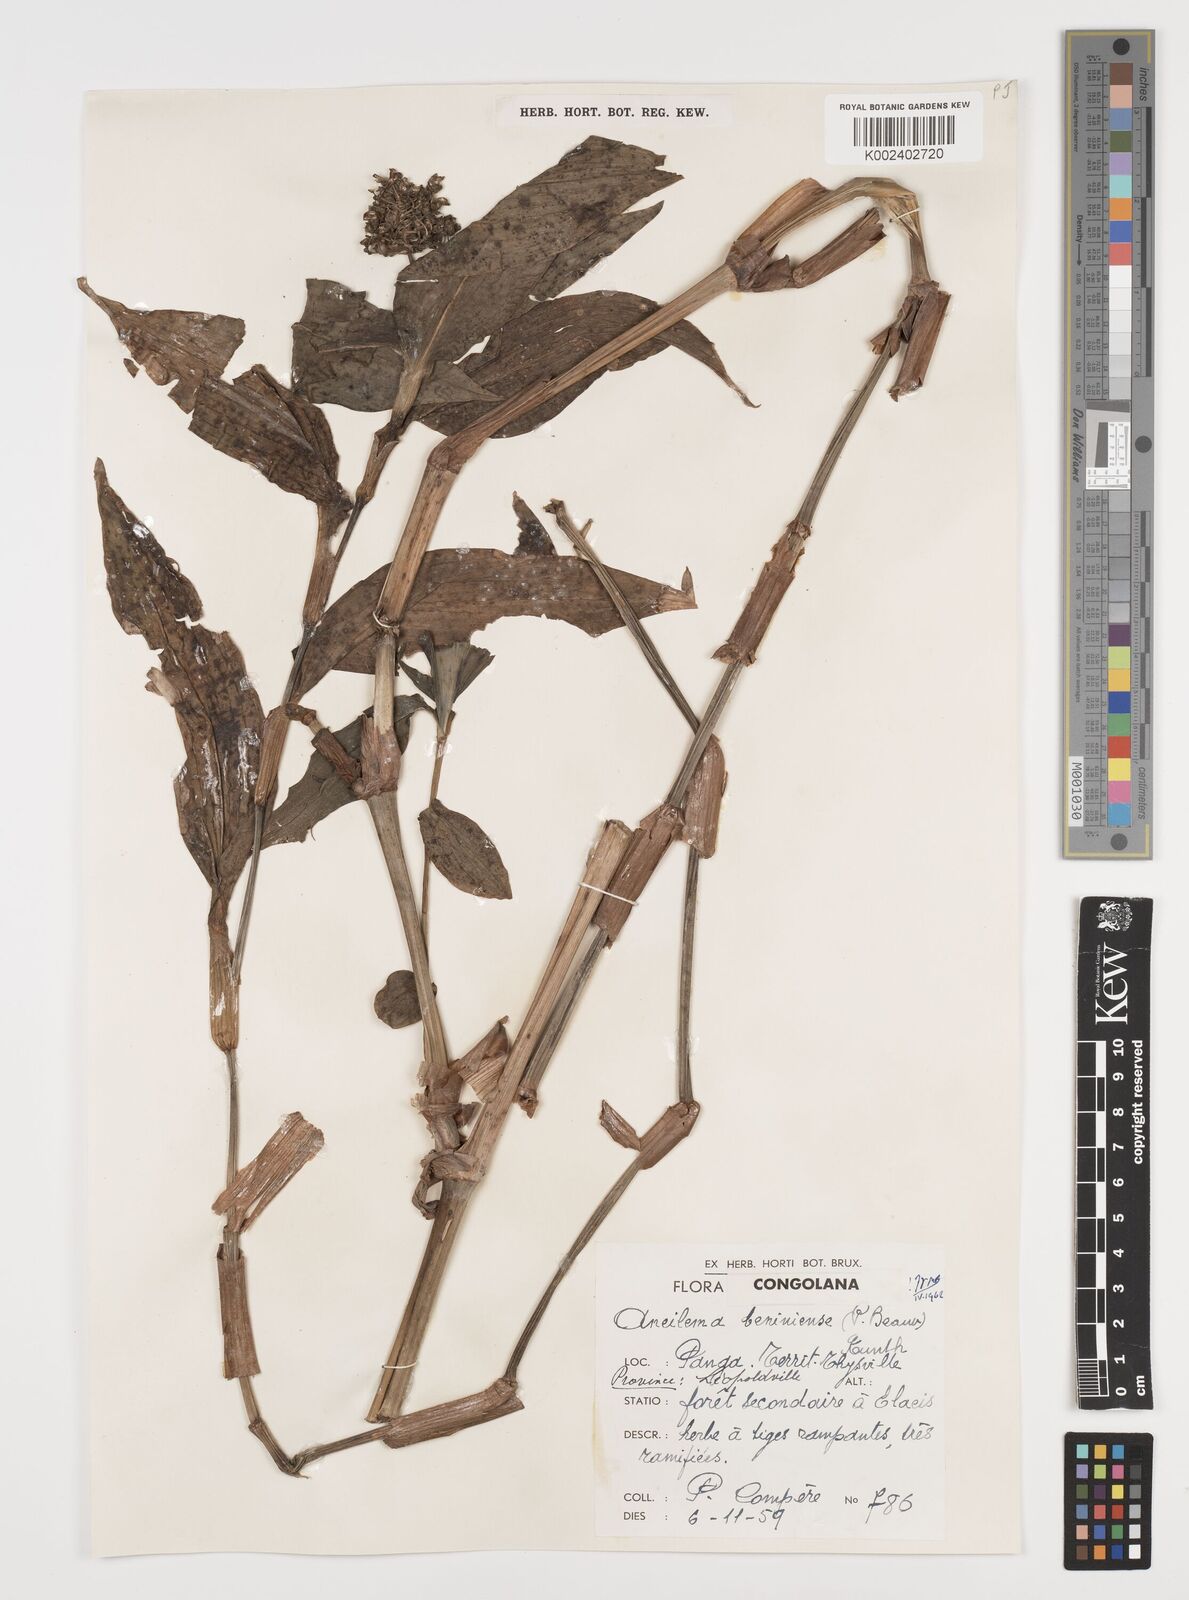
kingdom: Plantae
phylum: Tracheophyta
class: Liliopsida
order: Commelinales
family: Commelinaceae
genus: Aneilema
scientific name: Aneilema beniniense
